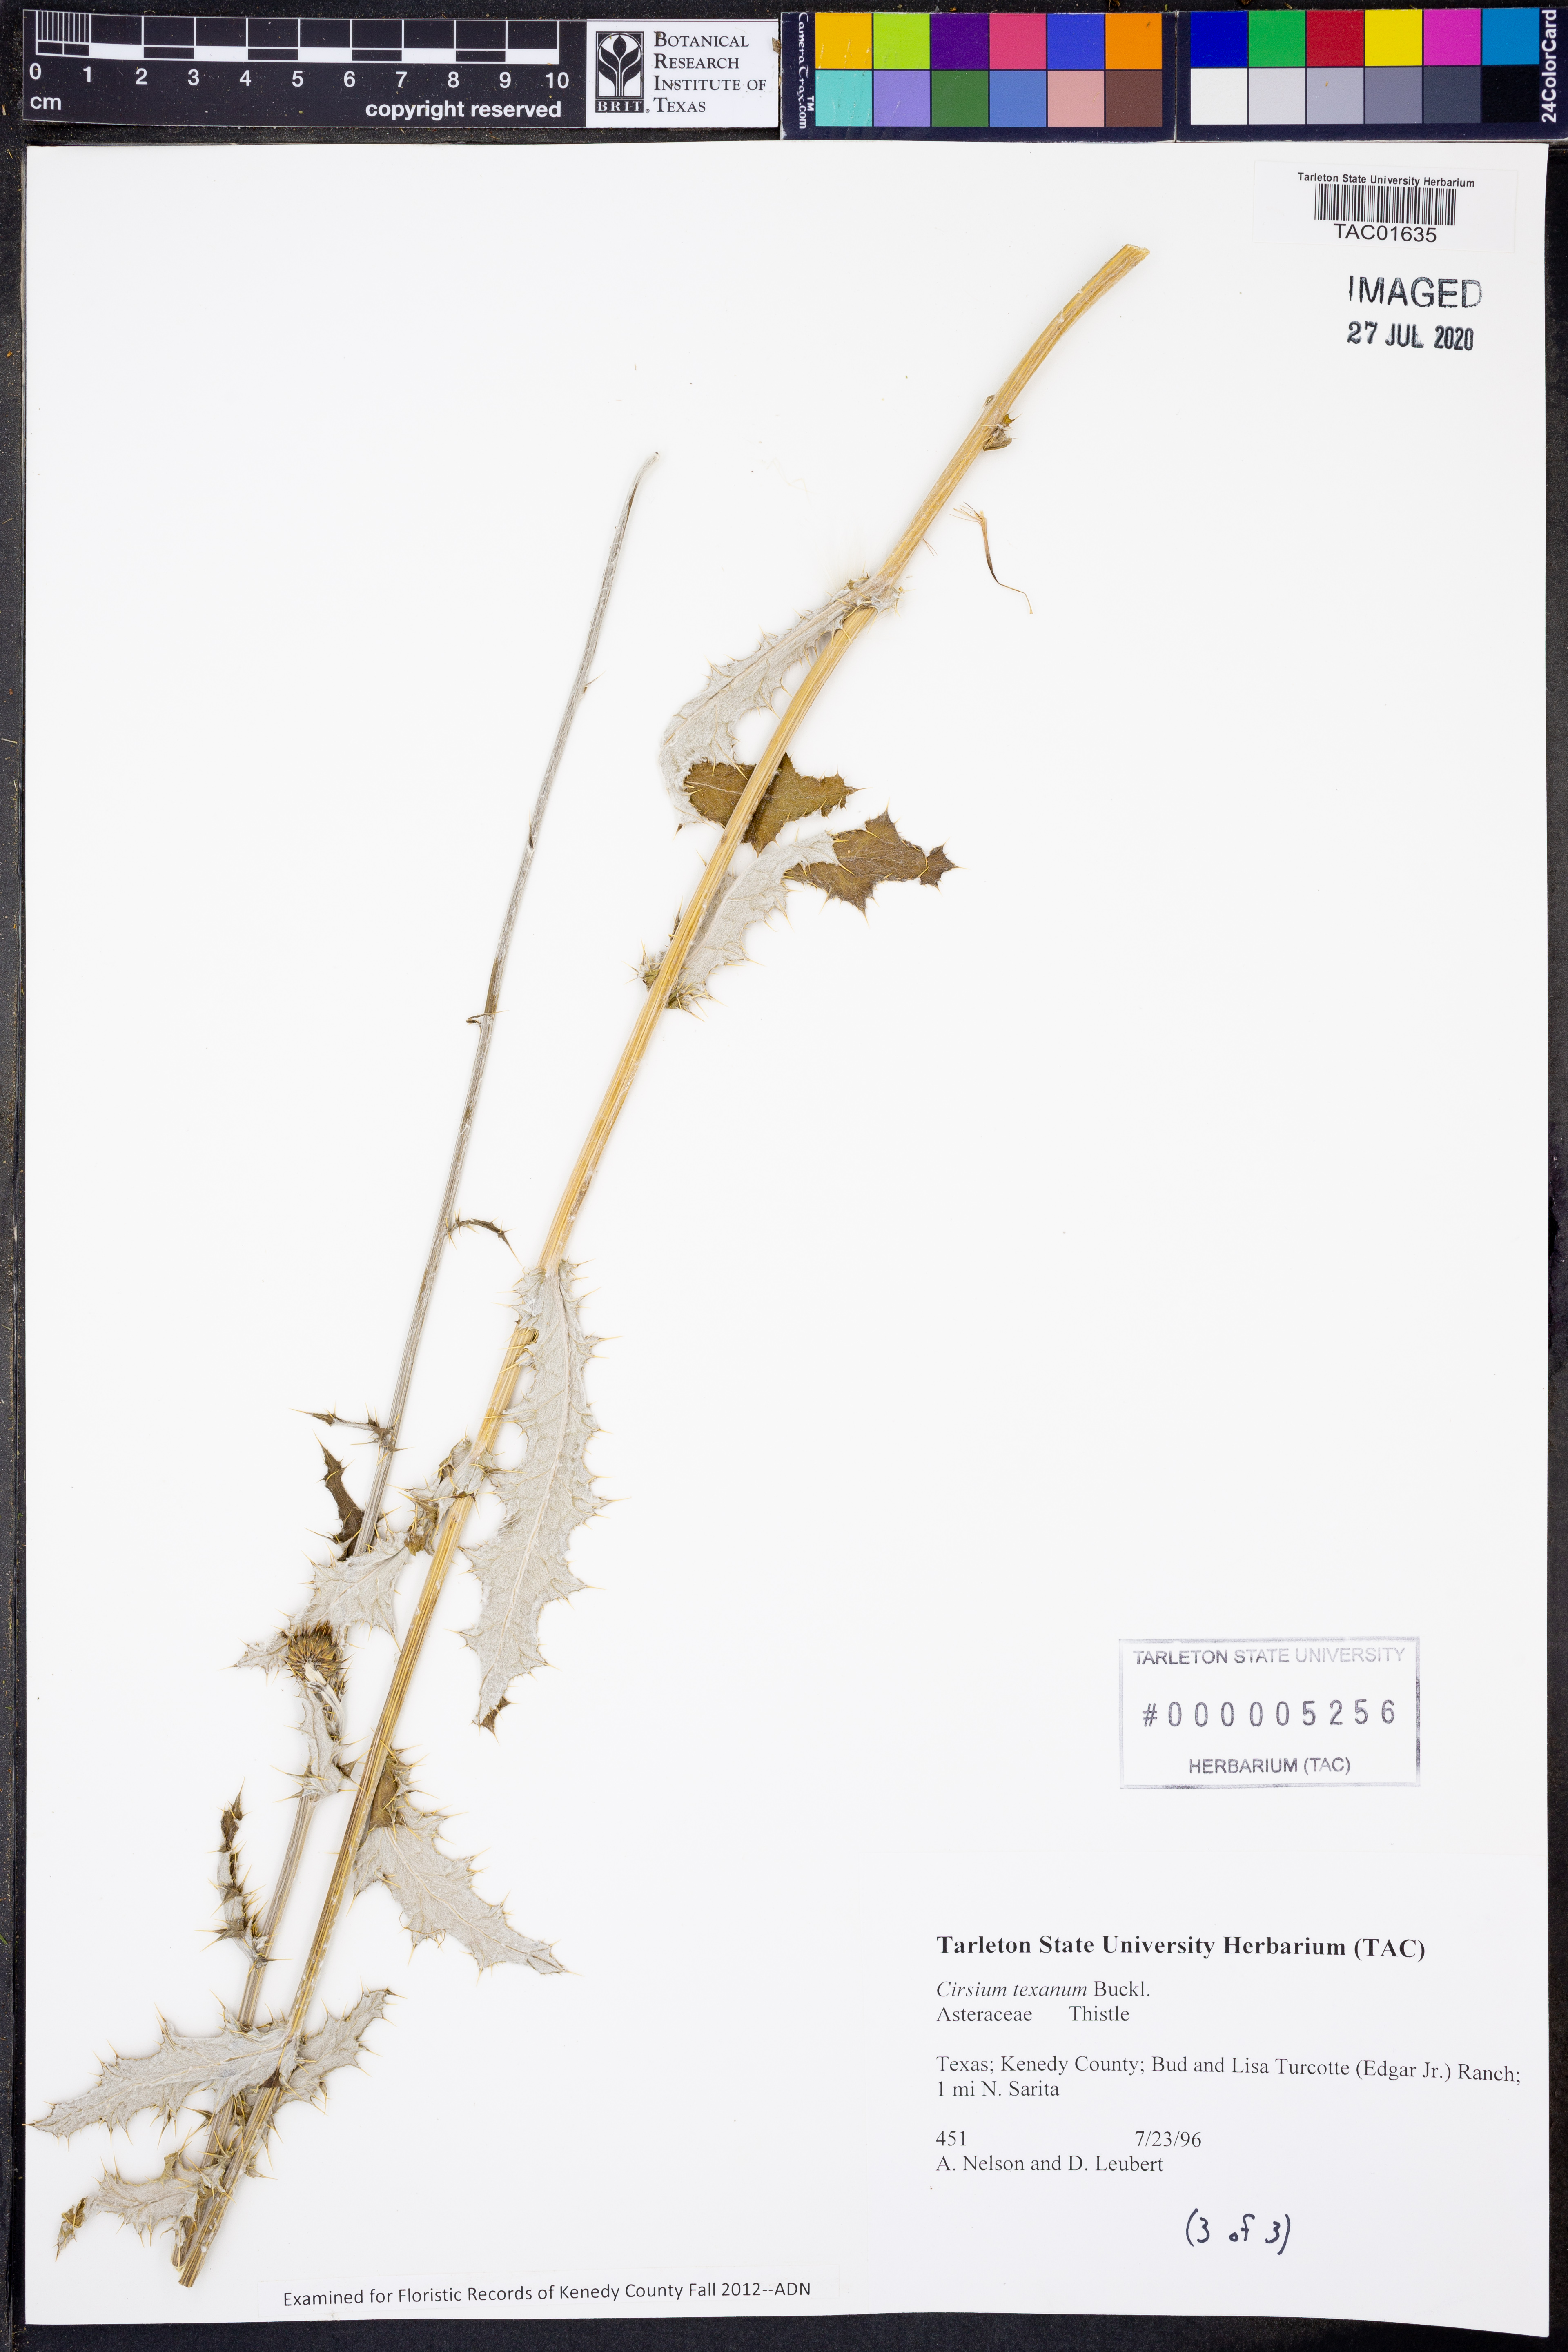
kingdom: Plantae
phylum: Tracheophyta
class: Magnoliopsida
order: Asterales
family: Asteraceae
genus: Cirsium
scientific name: Cirsium texanum
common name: Texas purple thistle
